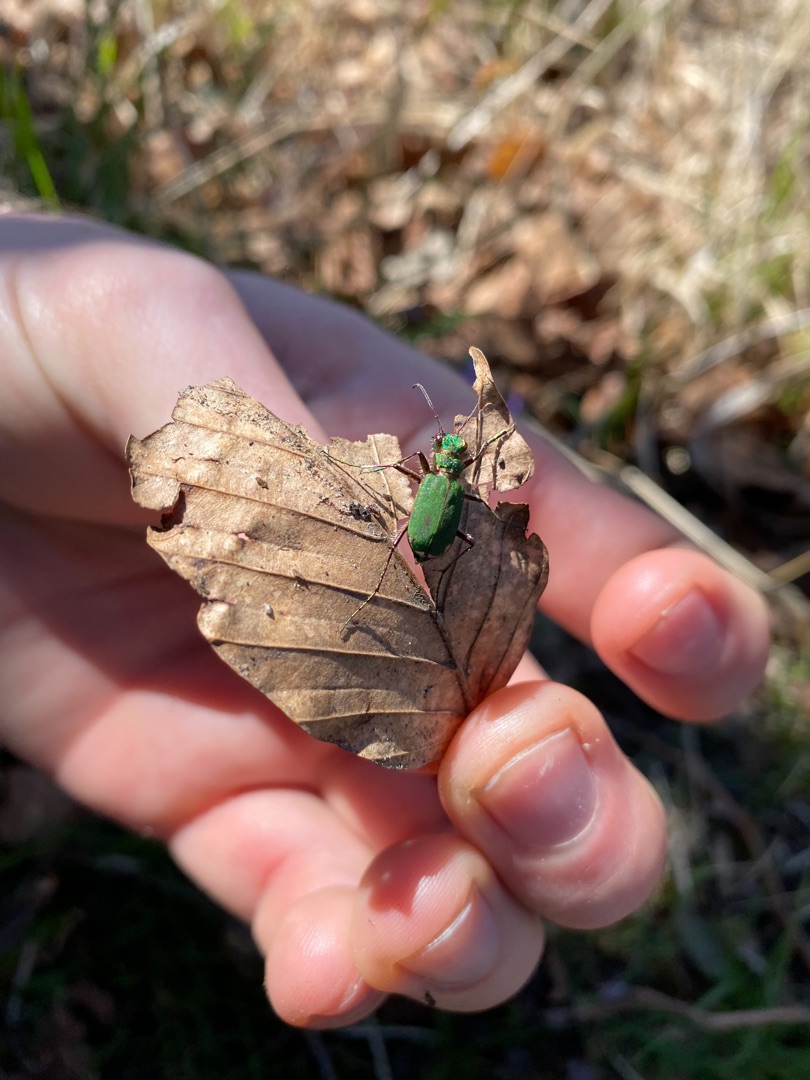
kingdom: Animalia
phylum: Arthropoda
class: Insecta
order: Coleoptera
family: Carabidae
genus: Cicindela
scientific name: Cicindela campestris
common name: Grøn sandspringer
